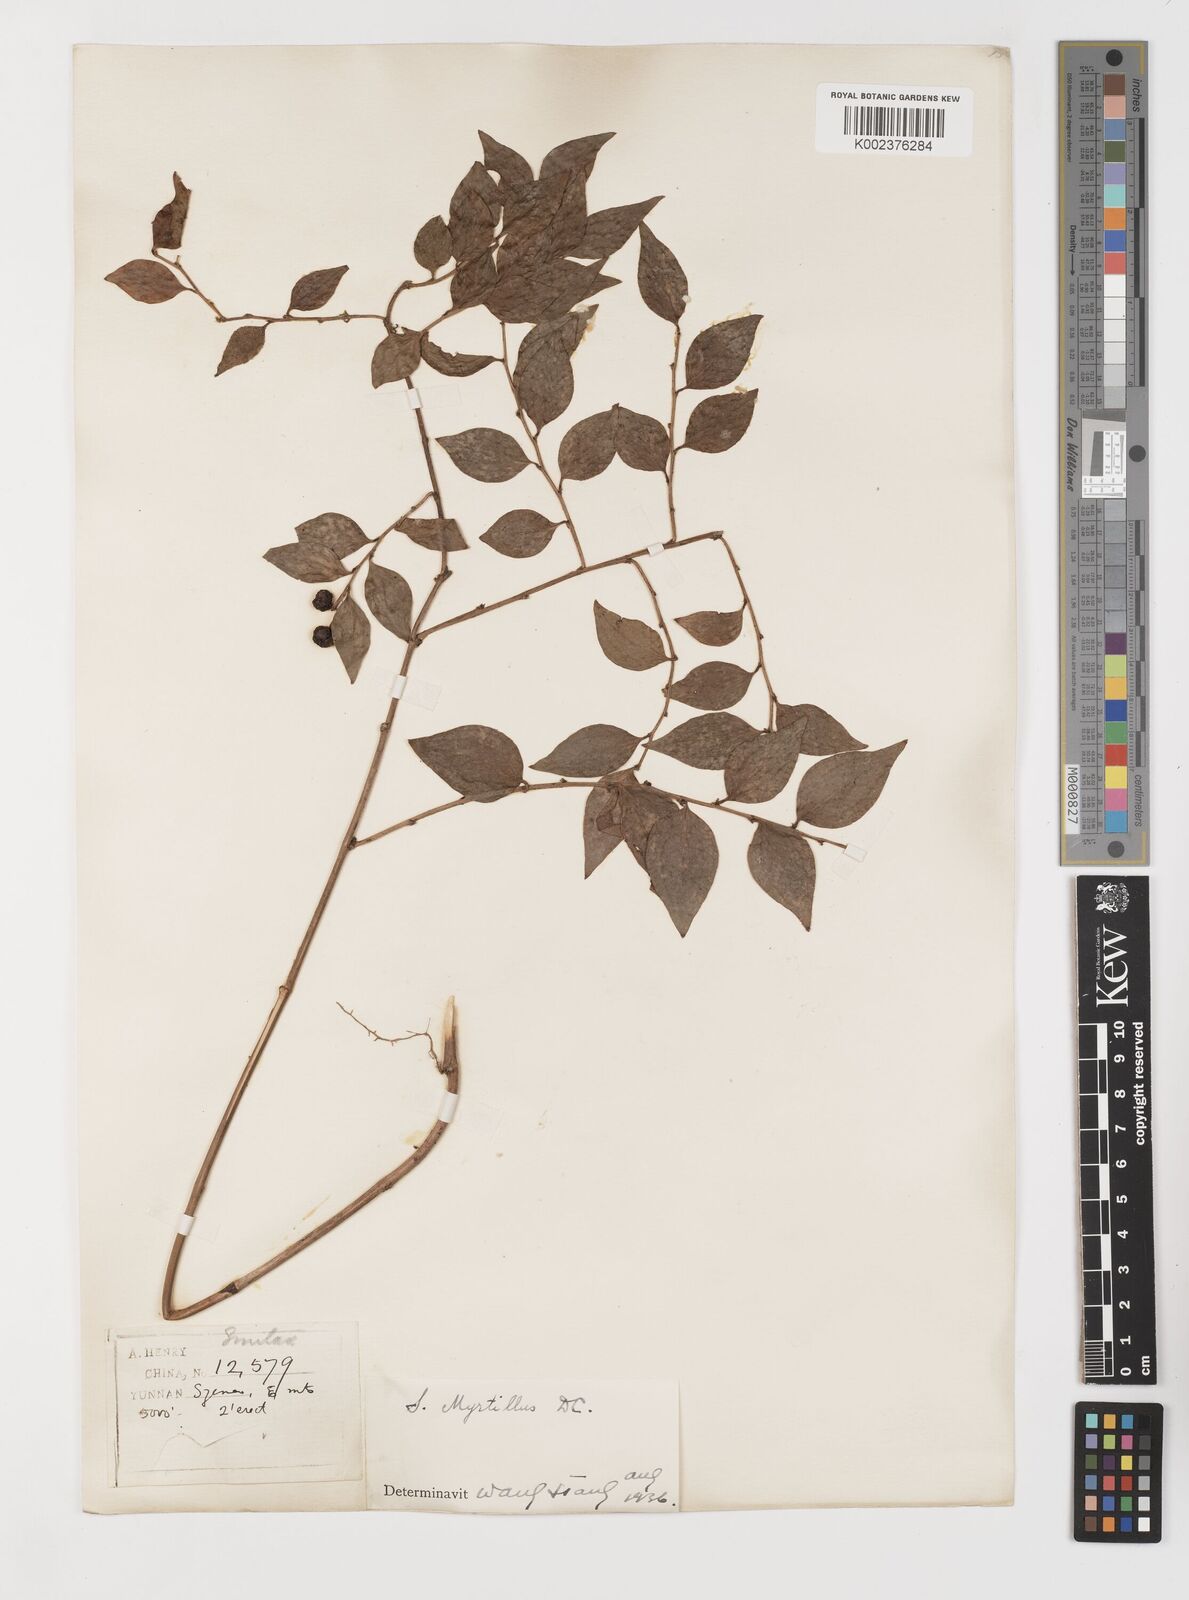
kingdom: Plantae
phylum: Tracheophyta
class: Liliopsida
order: Liliales
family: Smilacaceae
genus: Smilax
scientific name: Smilax myrtillus
